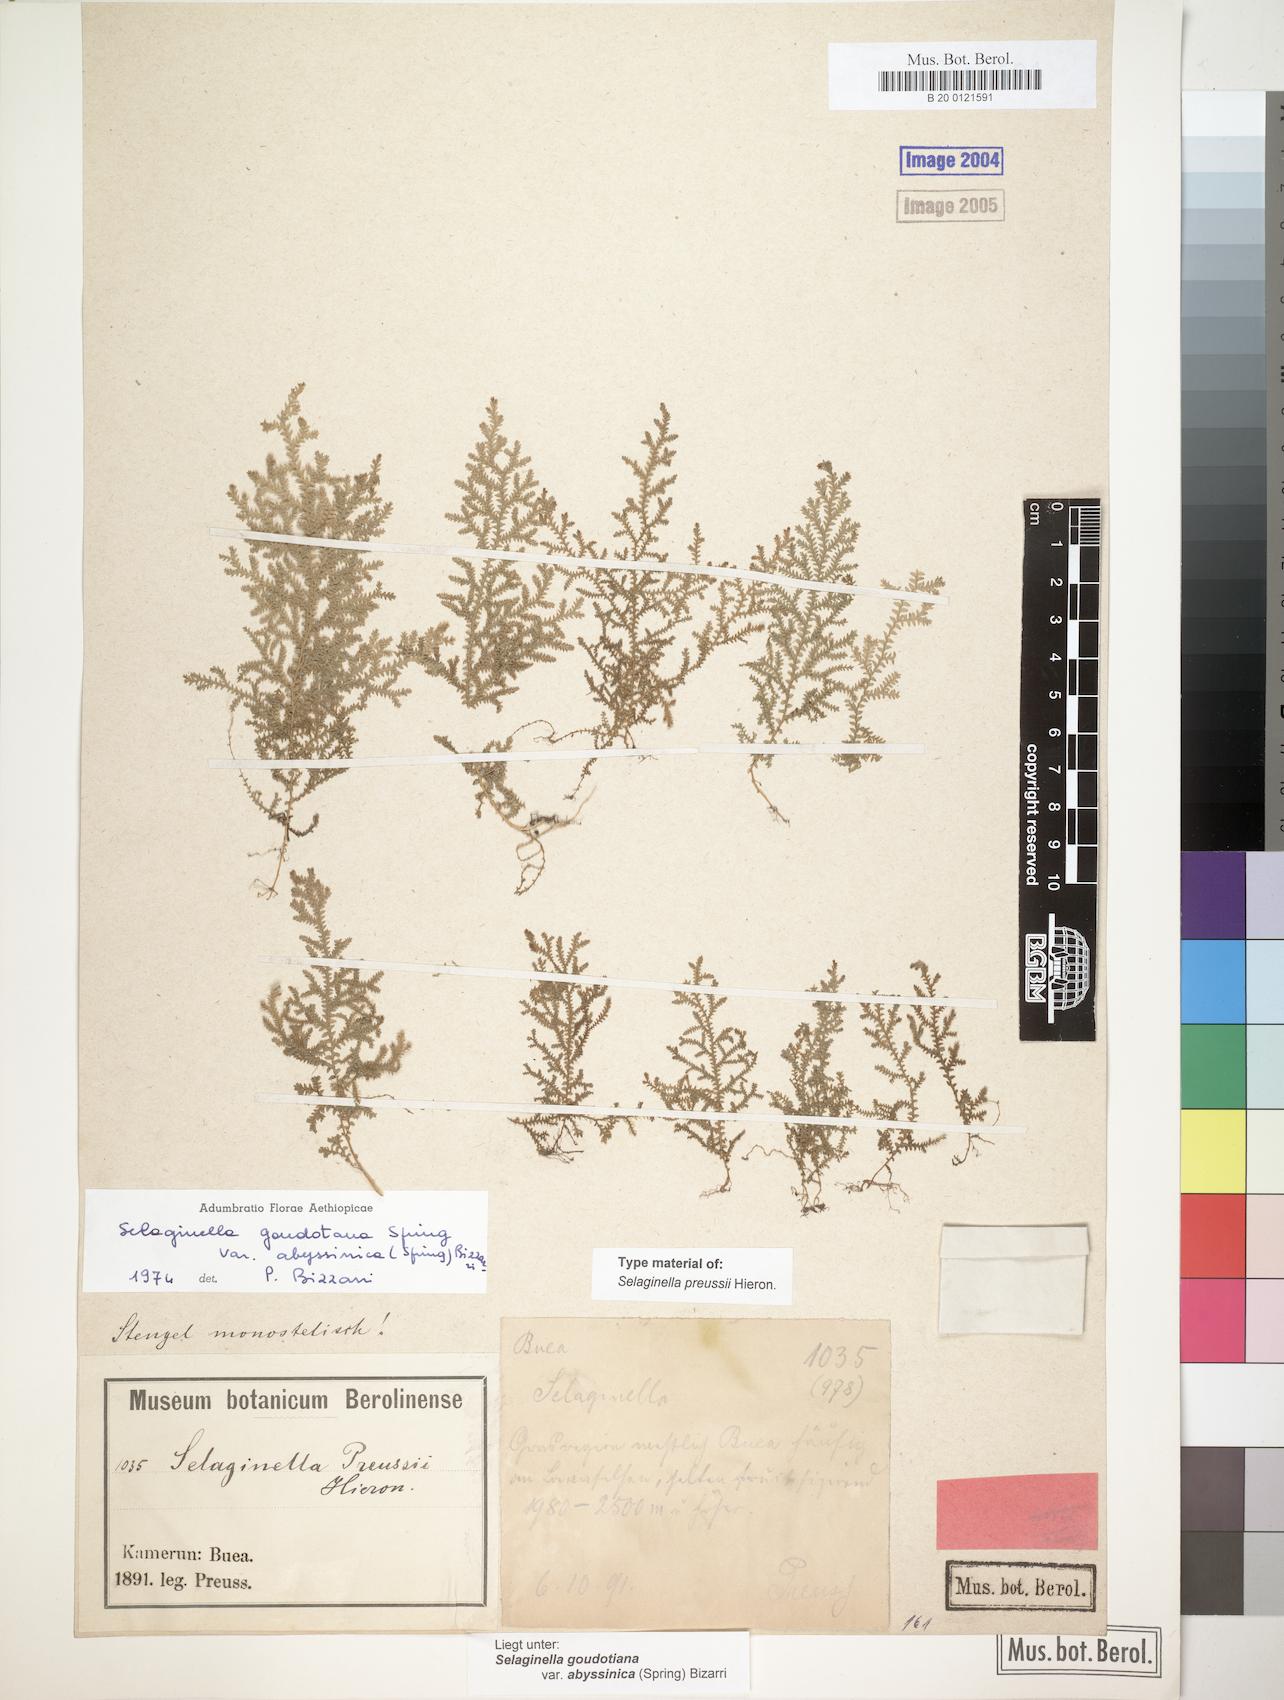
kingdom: Plantae
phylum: Tracheophyta
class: Lycopodiopsida
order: Selaginellales
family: Selaginellaceae
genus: Selaginella
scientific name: Selaginella goudotiana
